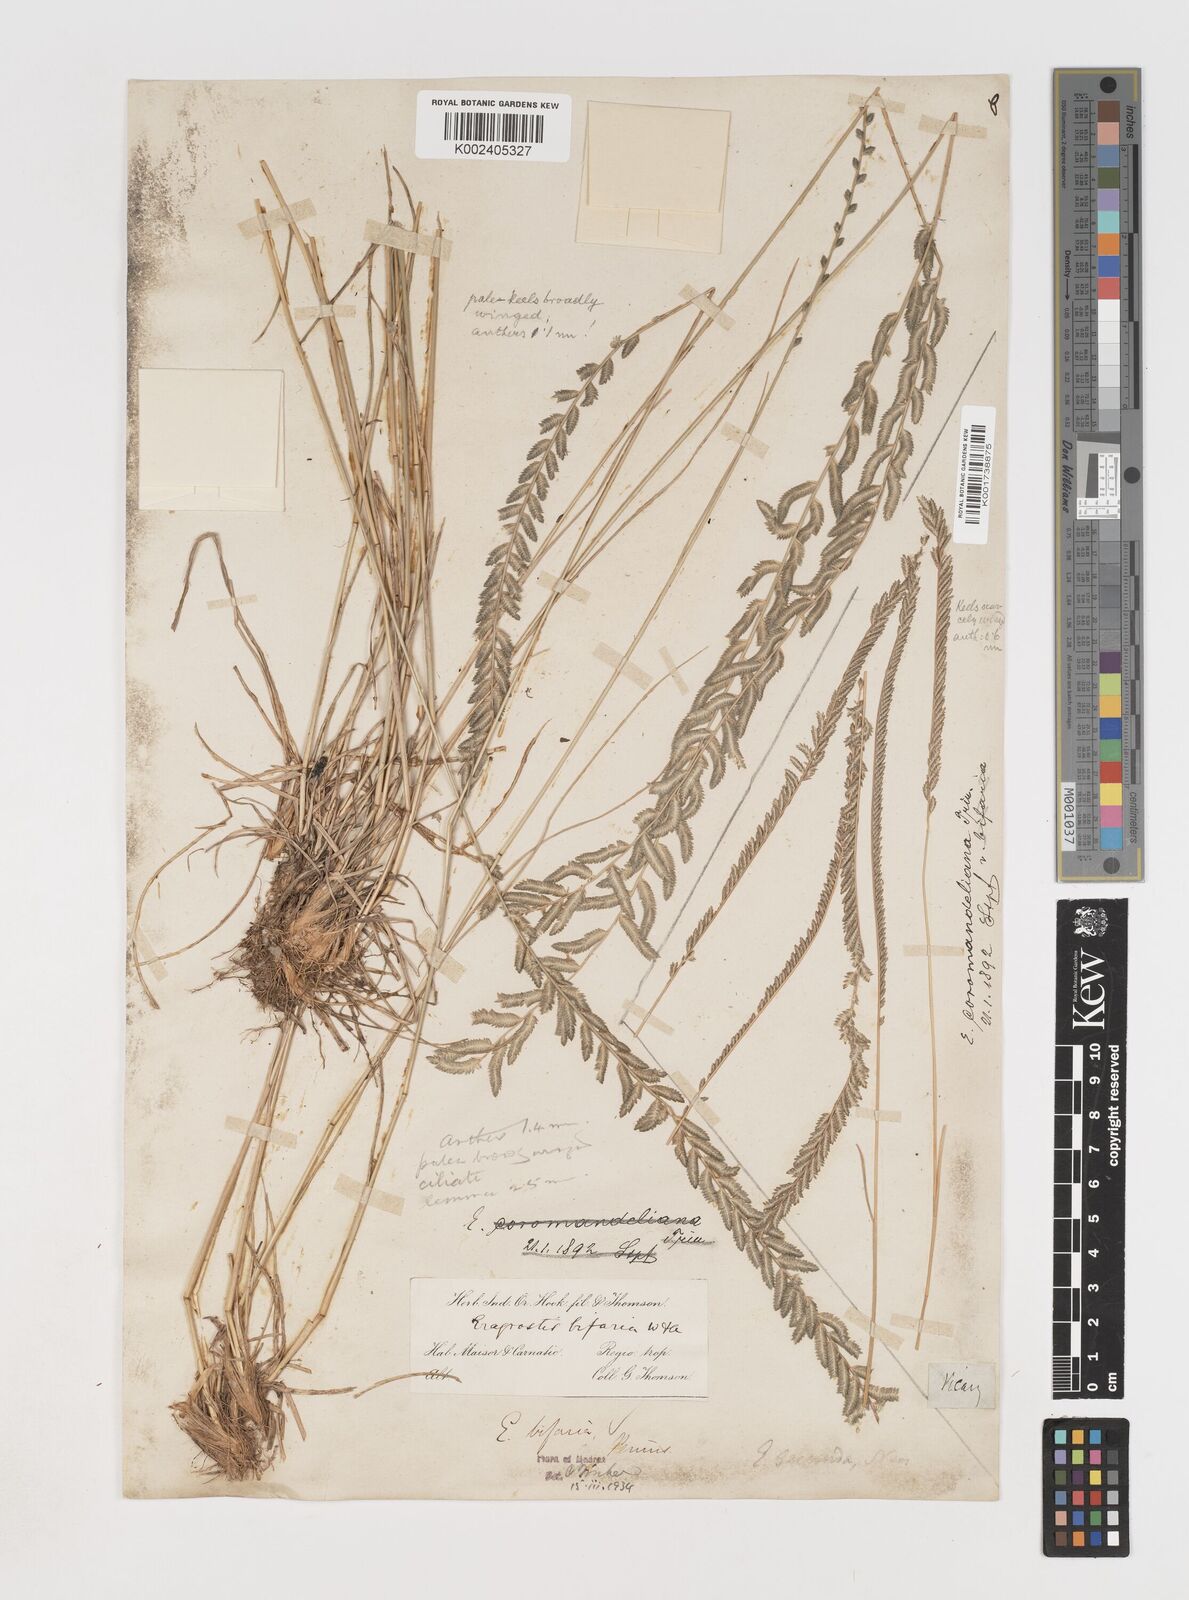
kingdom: Plantae
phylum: Tracheophyta
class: Liliopsida
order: Poales
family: Poaceae
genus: Eragrostiella
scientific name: Eragrostiella bifaria
